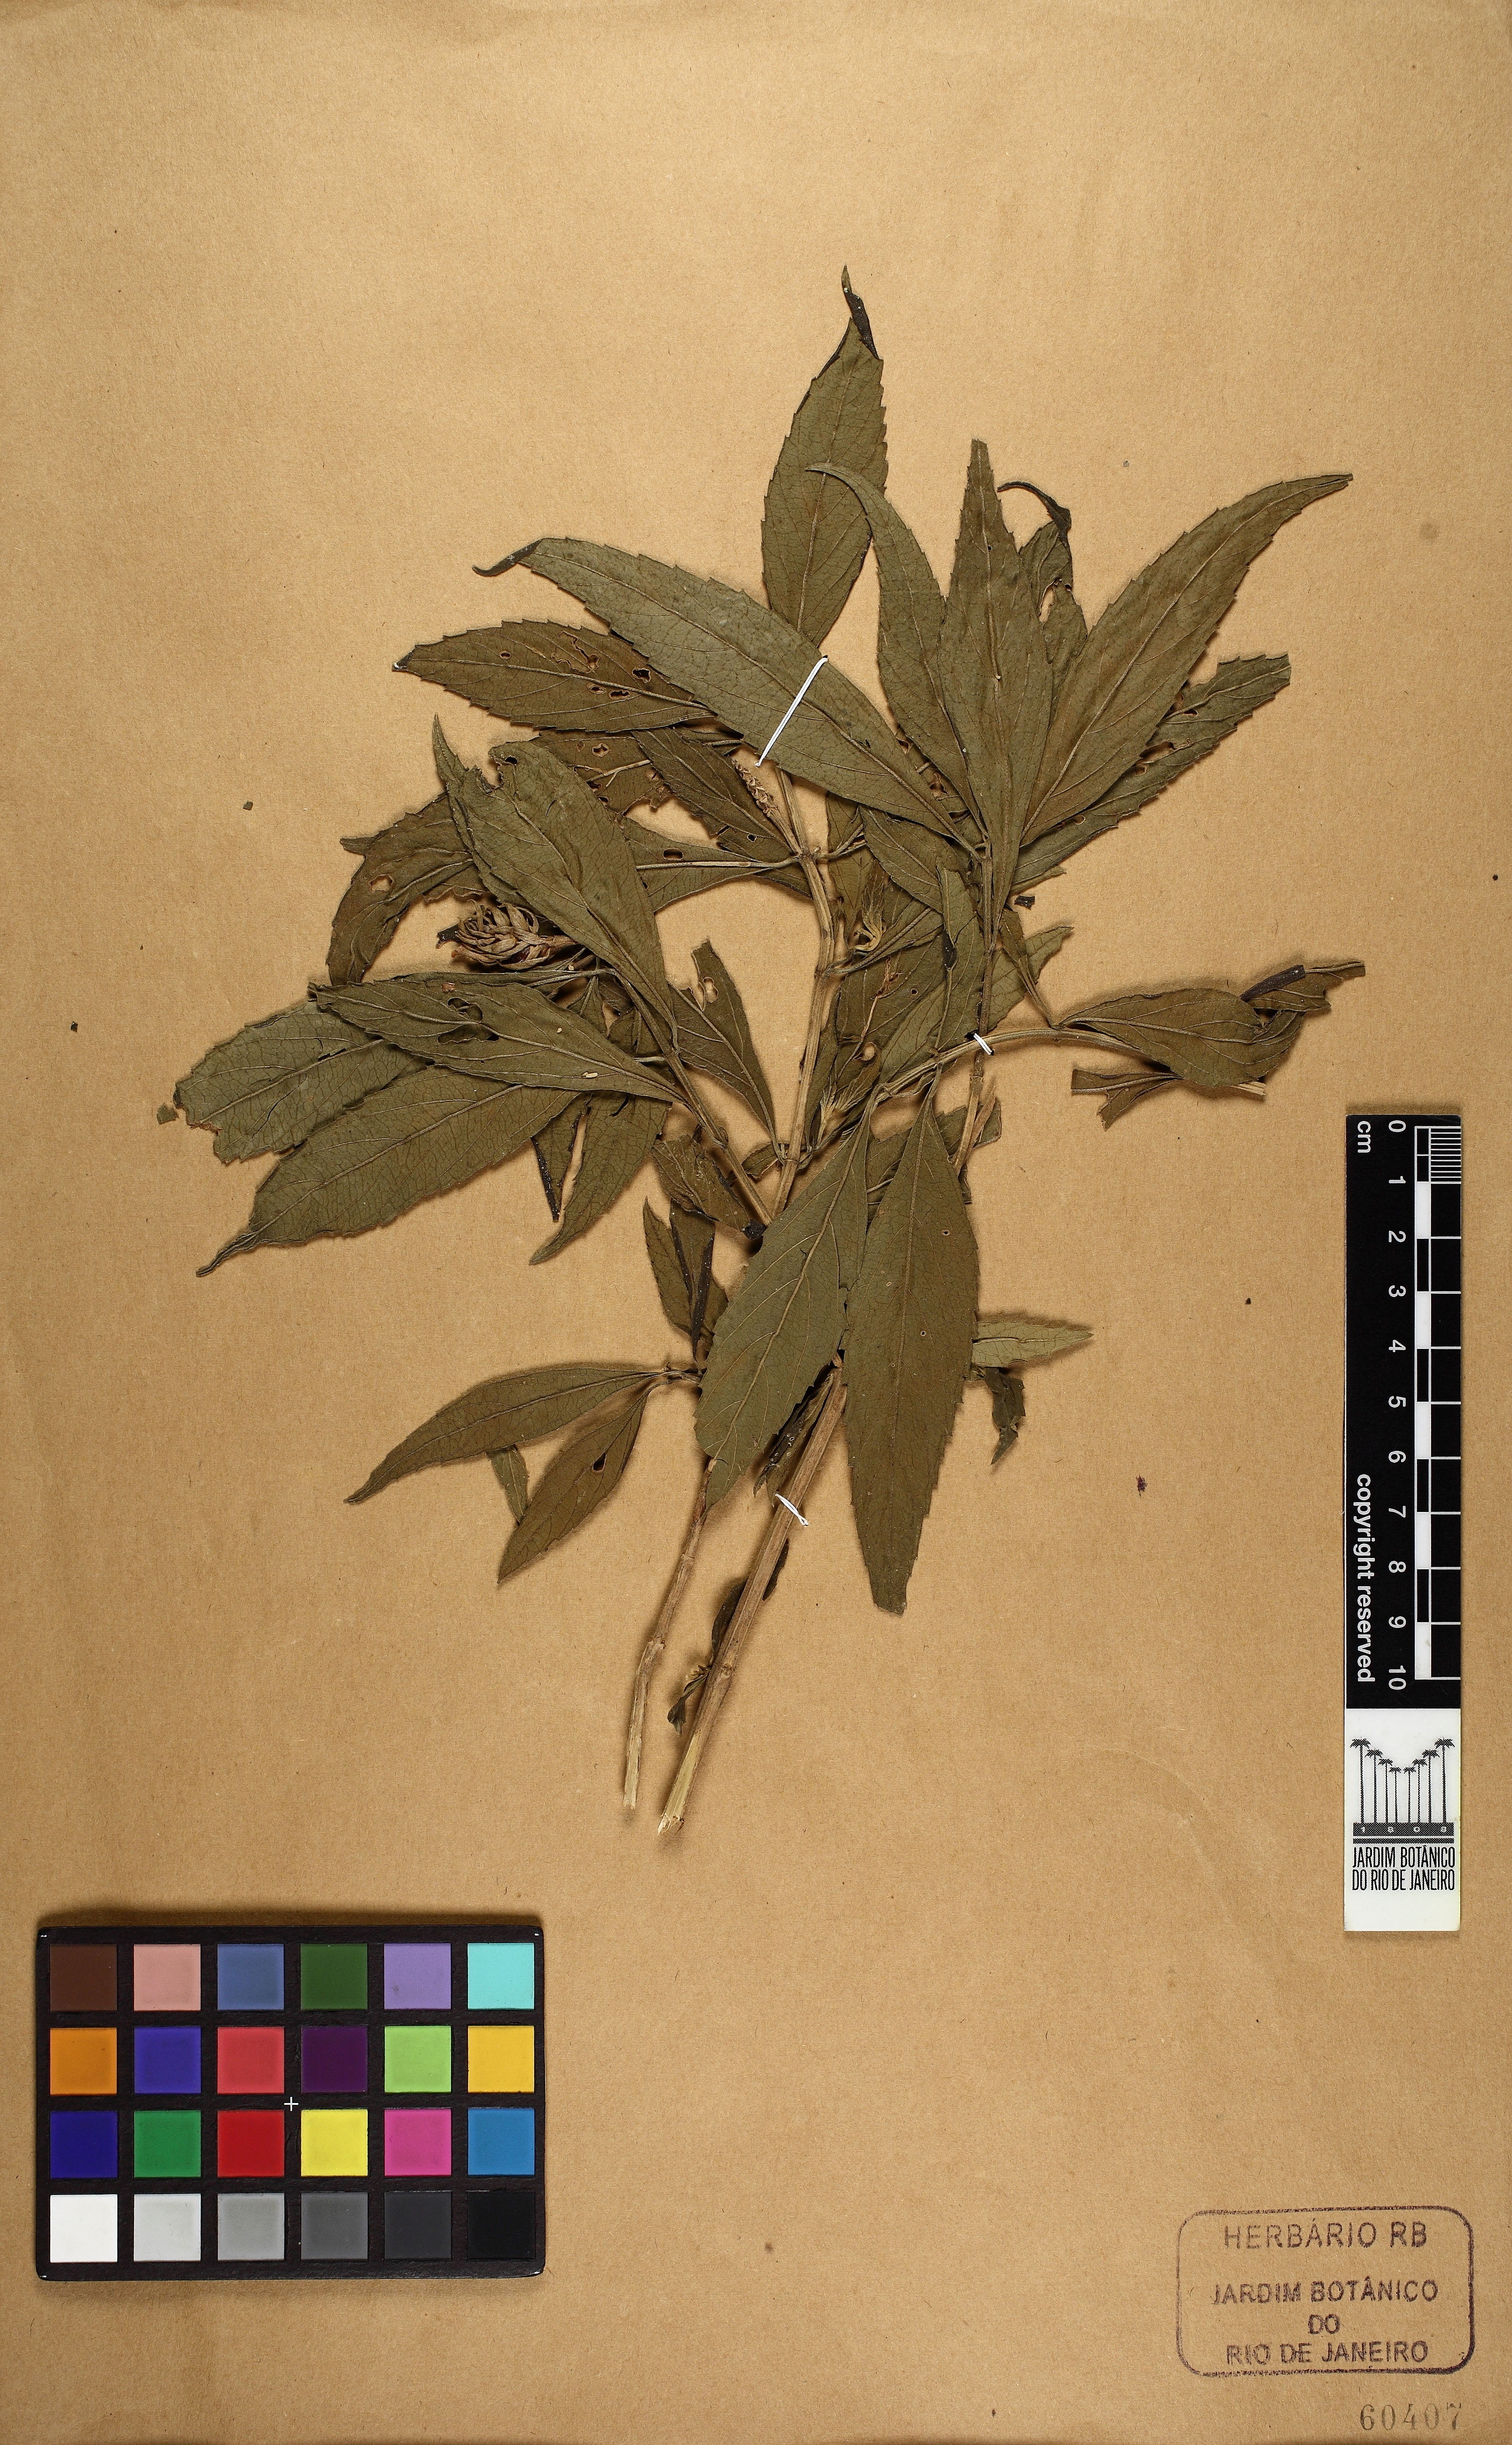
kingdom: Plantae
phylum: Tracheophyta
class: Magnoliopsida
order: Lamiales
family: Verbenaceae
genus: Lippia
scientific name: Lippia brasiliensis
